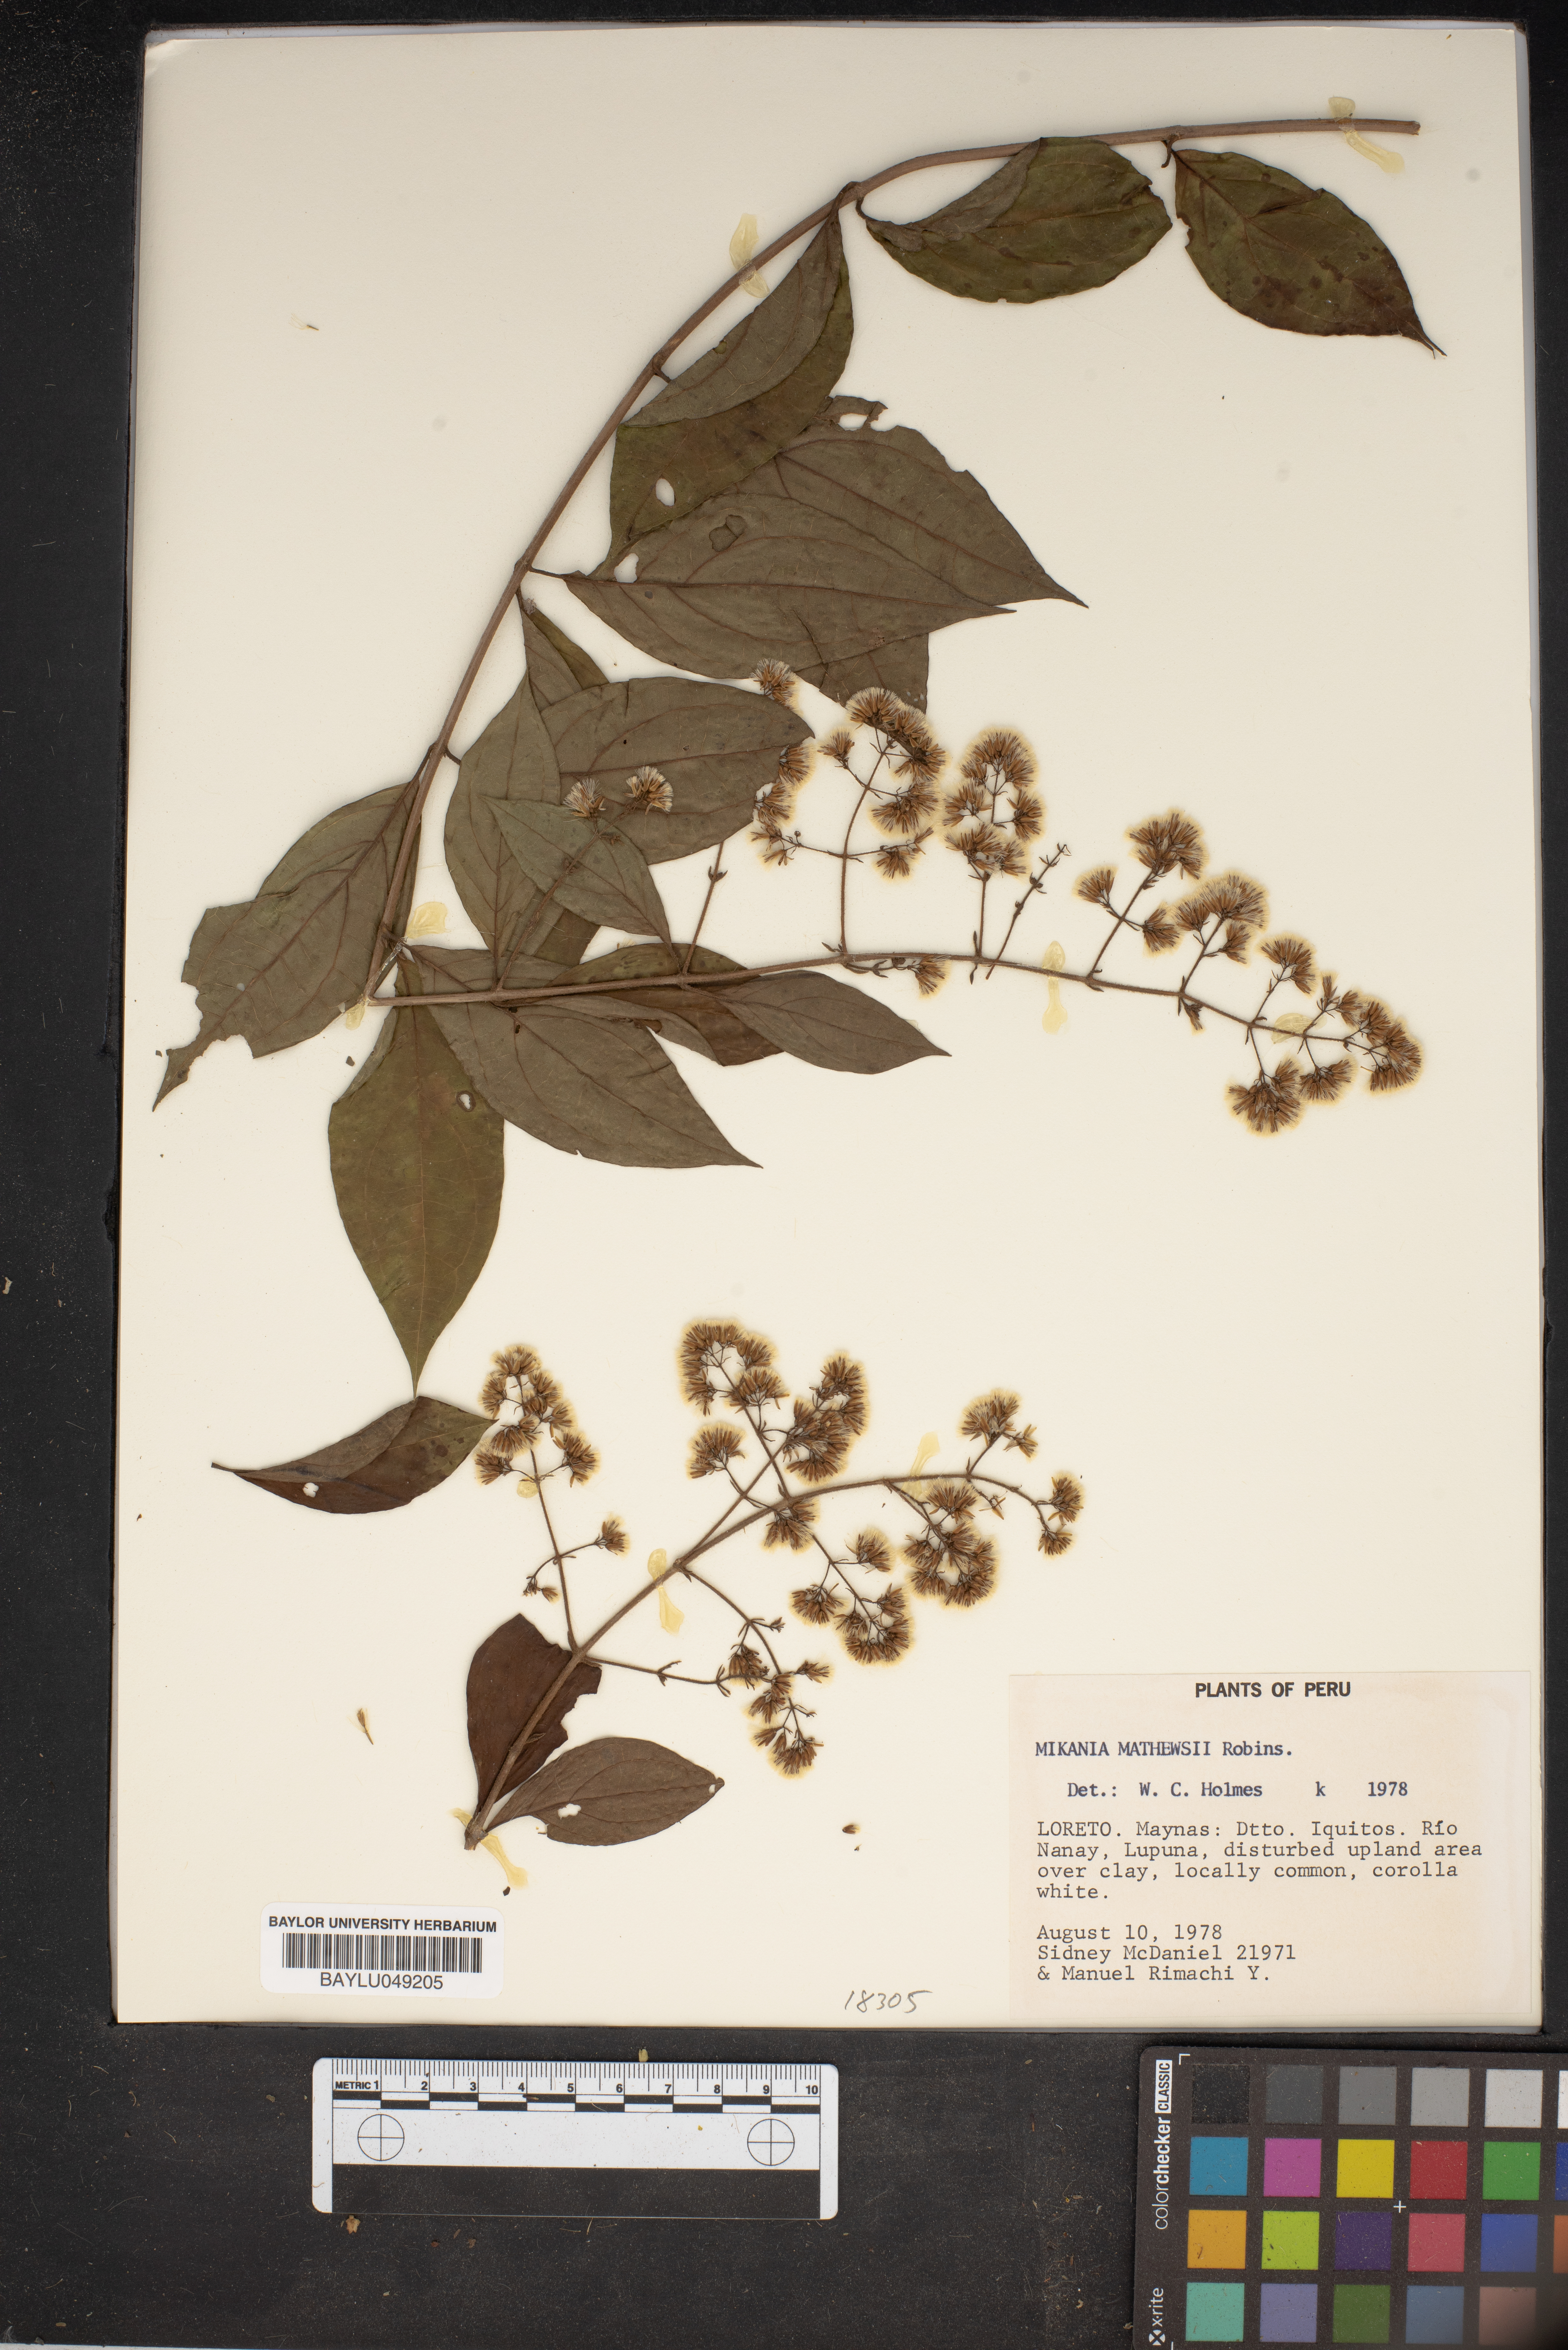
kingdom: Plantae
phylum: Tracheophyta
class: Magnoliopsida
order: Asterales
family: Asteraceae
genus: Mikania
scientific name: Mikania mathewsii
